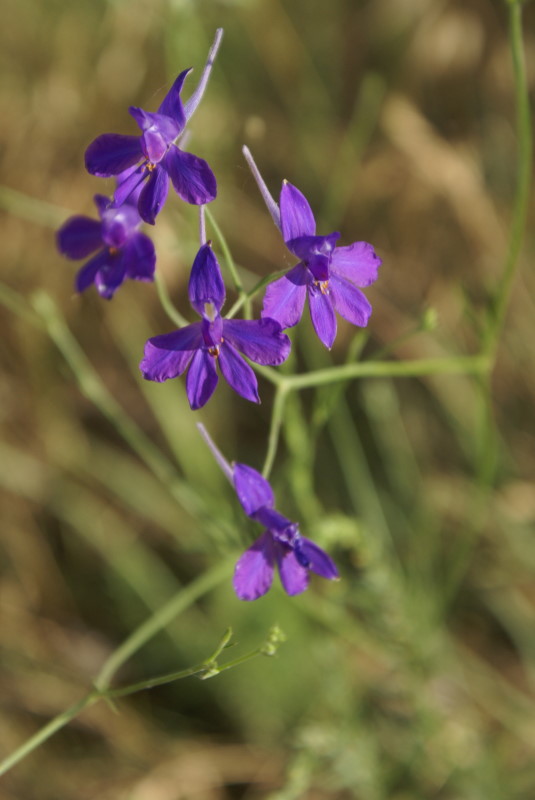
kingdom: Plantae
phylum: Tracheophyta
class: Magnoliopsida
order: Ranunculales
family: Ranunculaceae
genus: Delphinium
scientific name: Delphinium consolida
